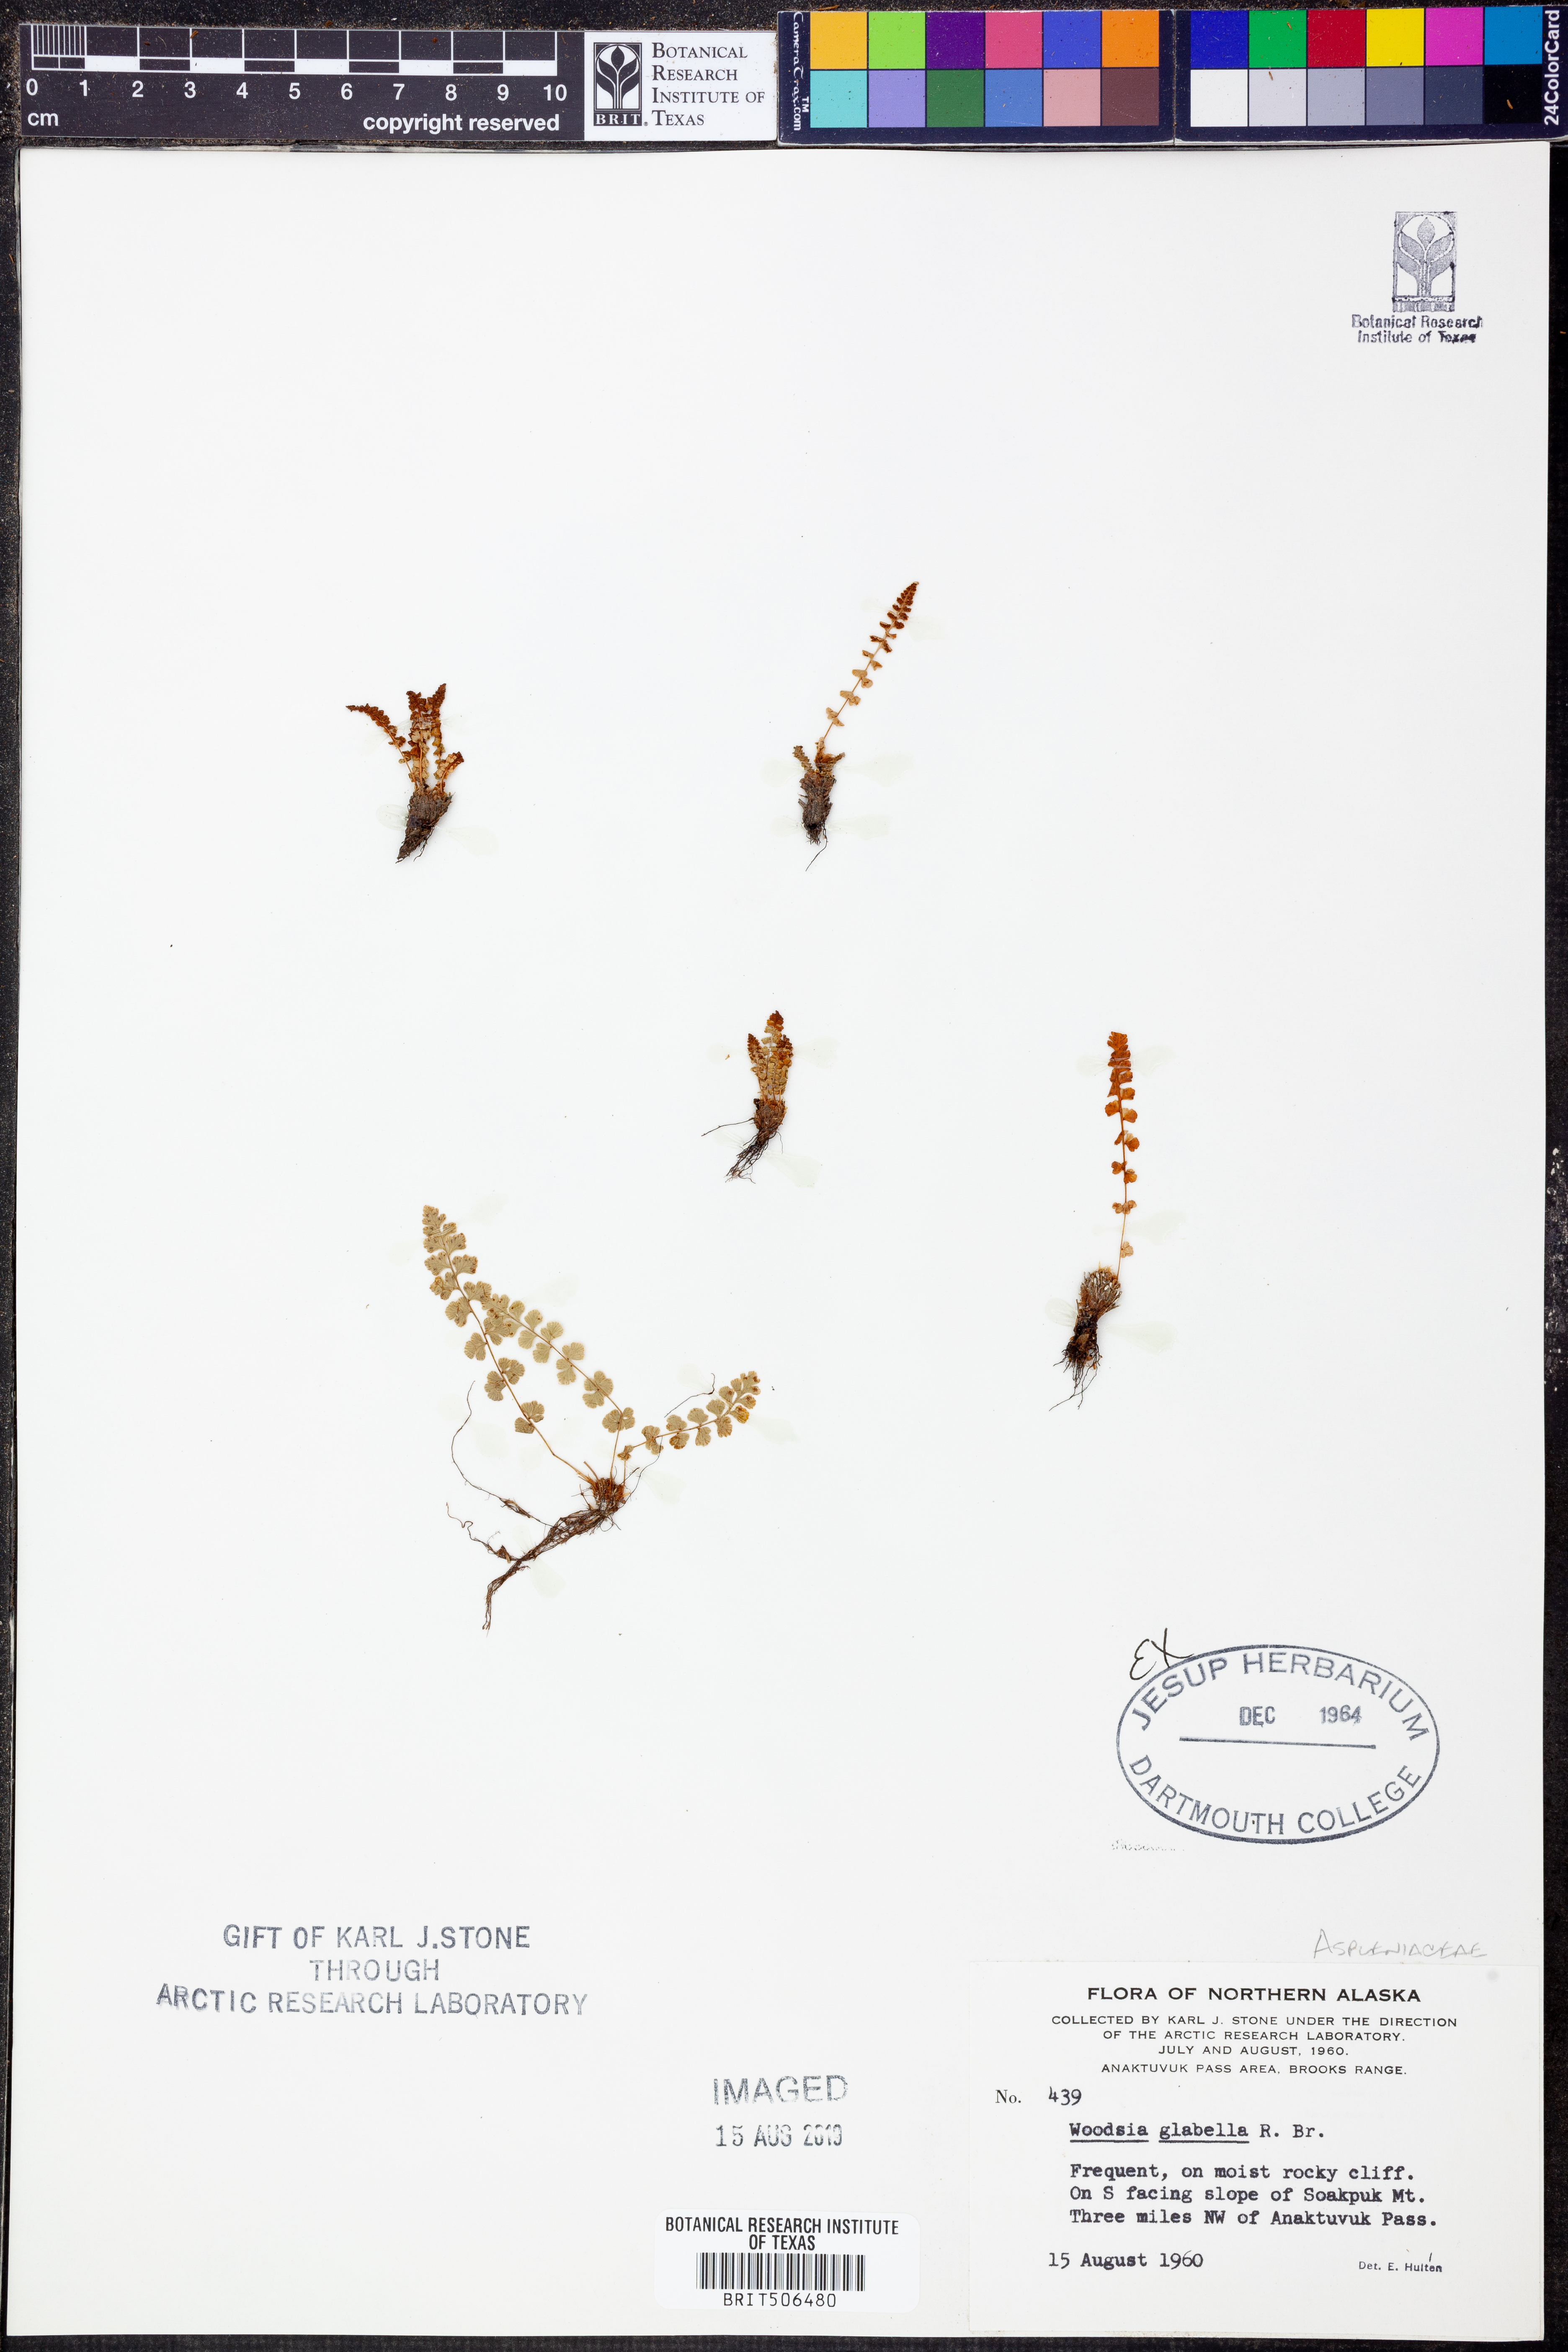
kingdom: Plantae
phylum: Tracheophyta
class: Polypodiopsida
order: Polypodiales
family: Woodsiaceae
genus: Woodsia
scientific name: Woodsia glabella
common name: Smooth woodsia
